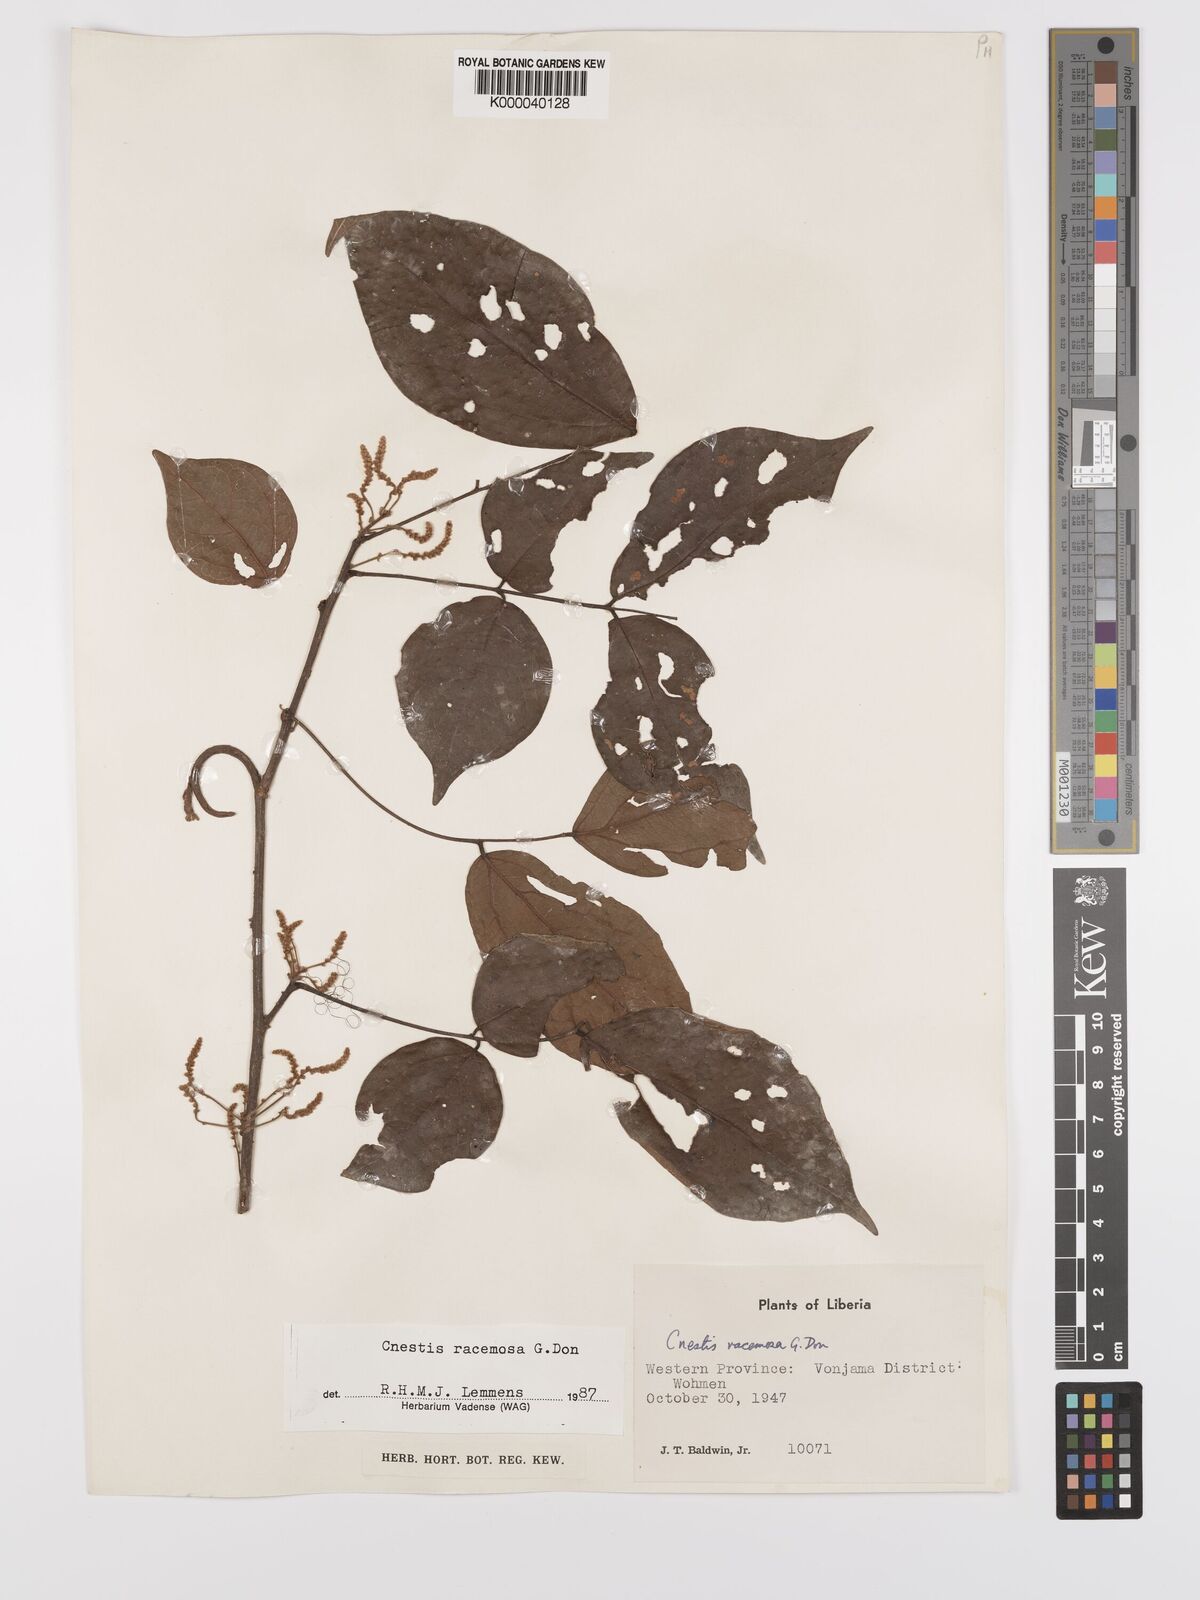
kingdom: Plantae
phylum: Tracheophyta
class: Magnoliopsida
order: Oxalidales
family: Connaraceae
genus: Cnestis
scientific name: Cnestis racemosa
